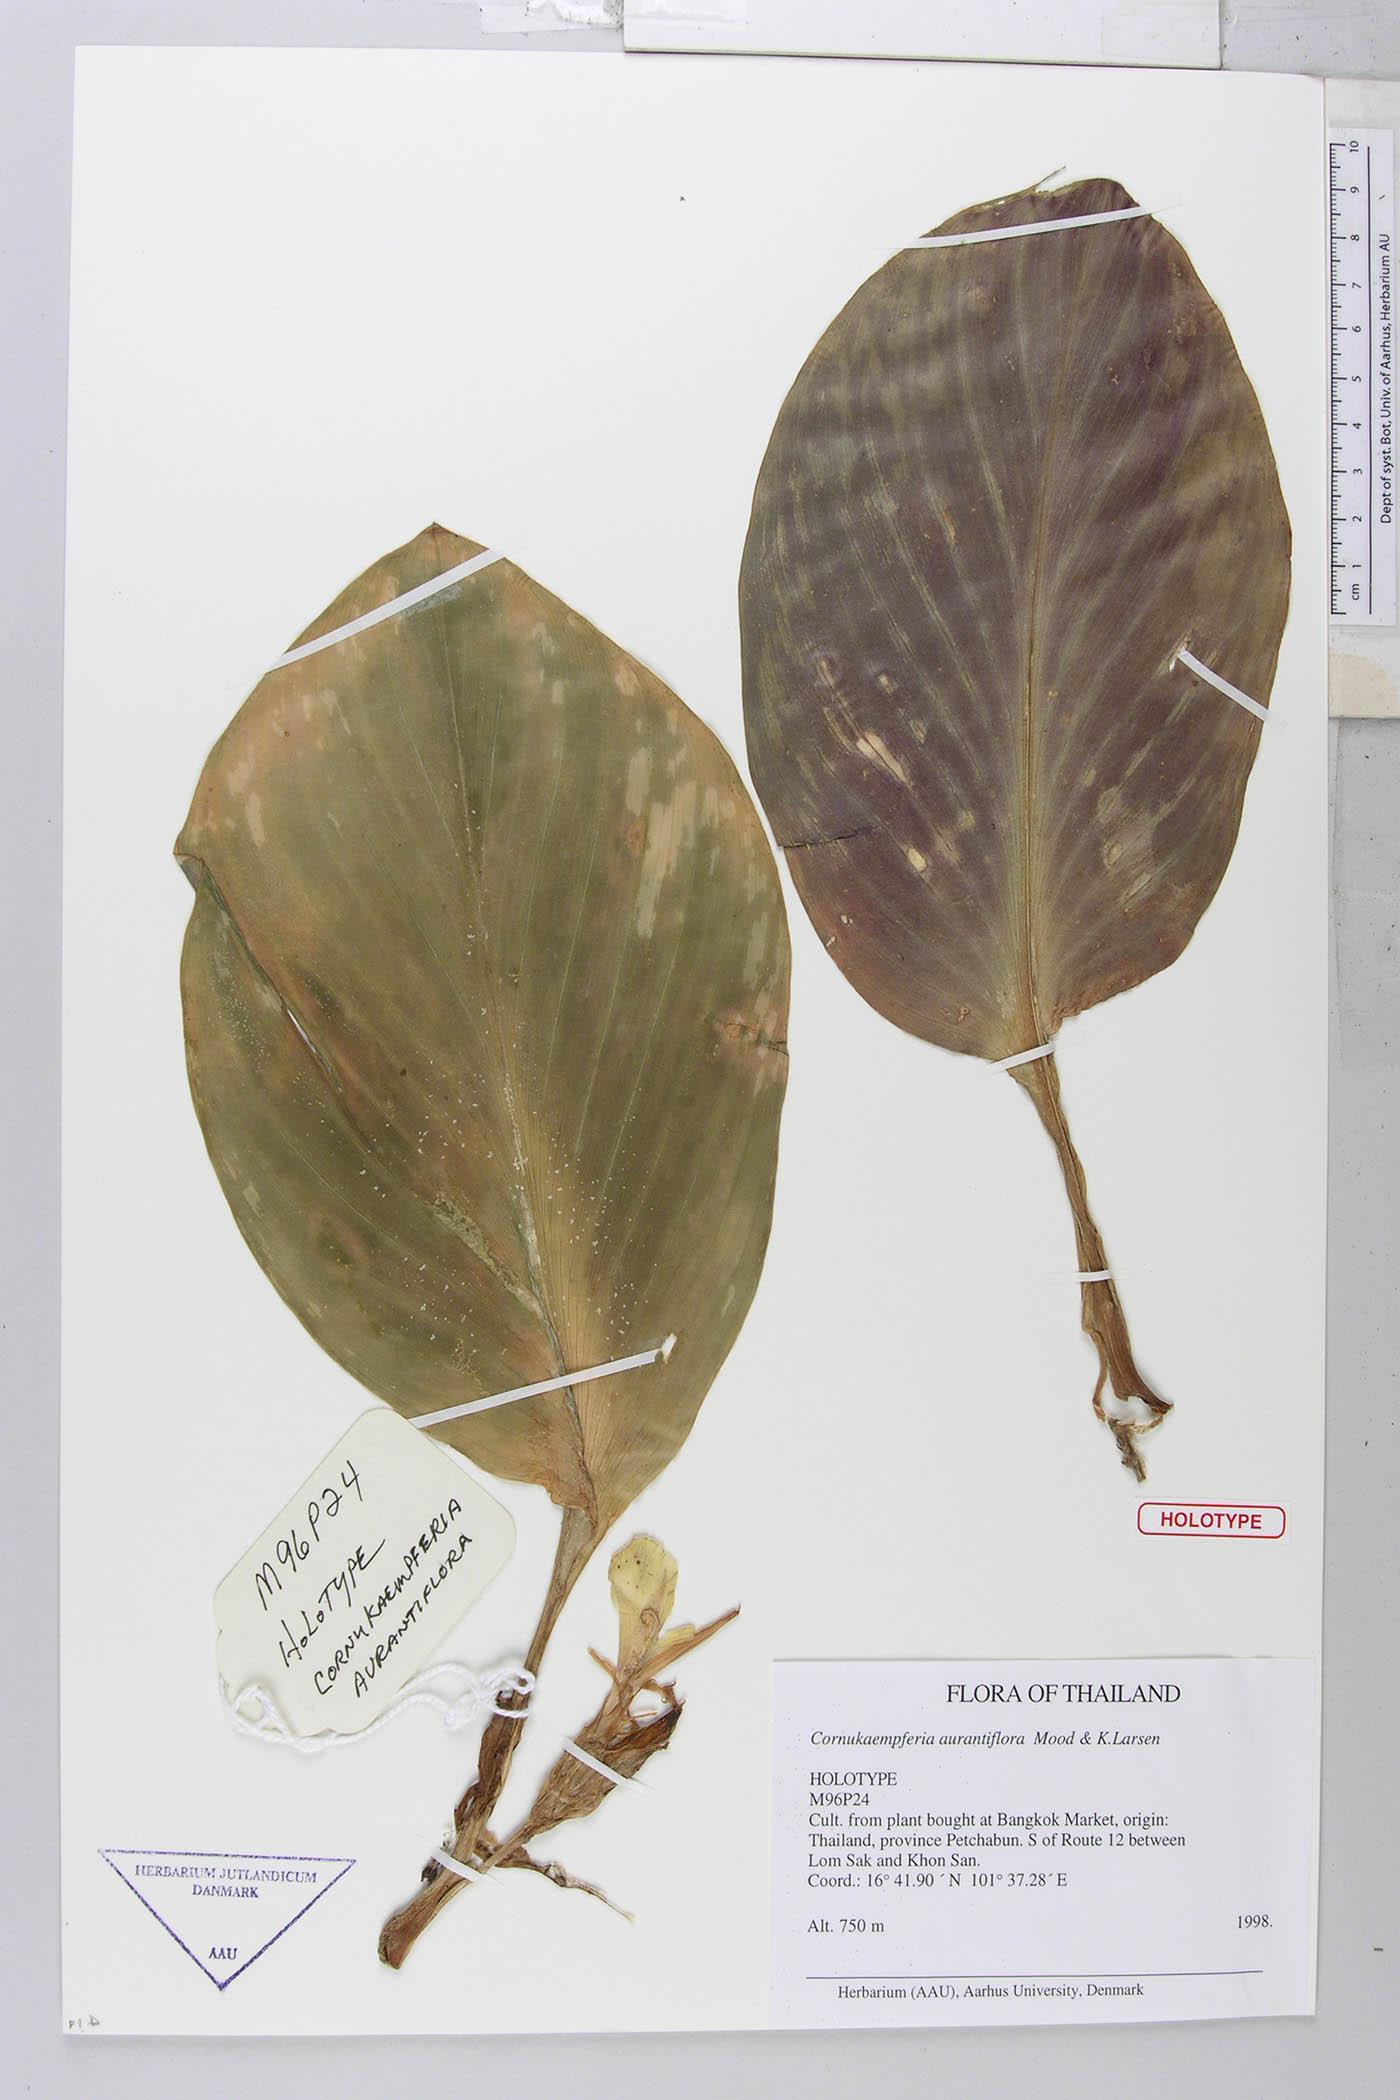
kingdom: Plantae
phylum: Tracheophyta
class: Liliopsida
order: Zingiberales
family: Zingiberaceae
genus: Cornukaempferia
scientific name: Cornukaempferia aurantiiflora
